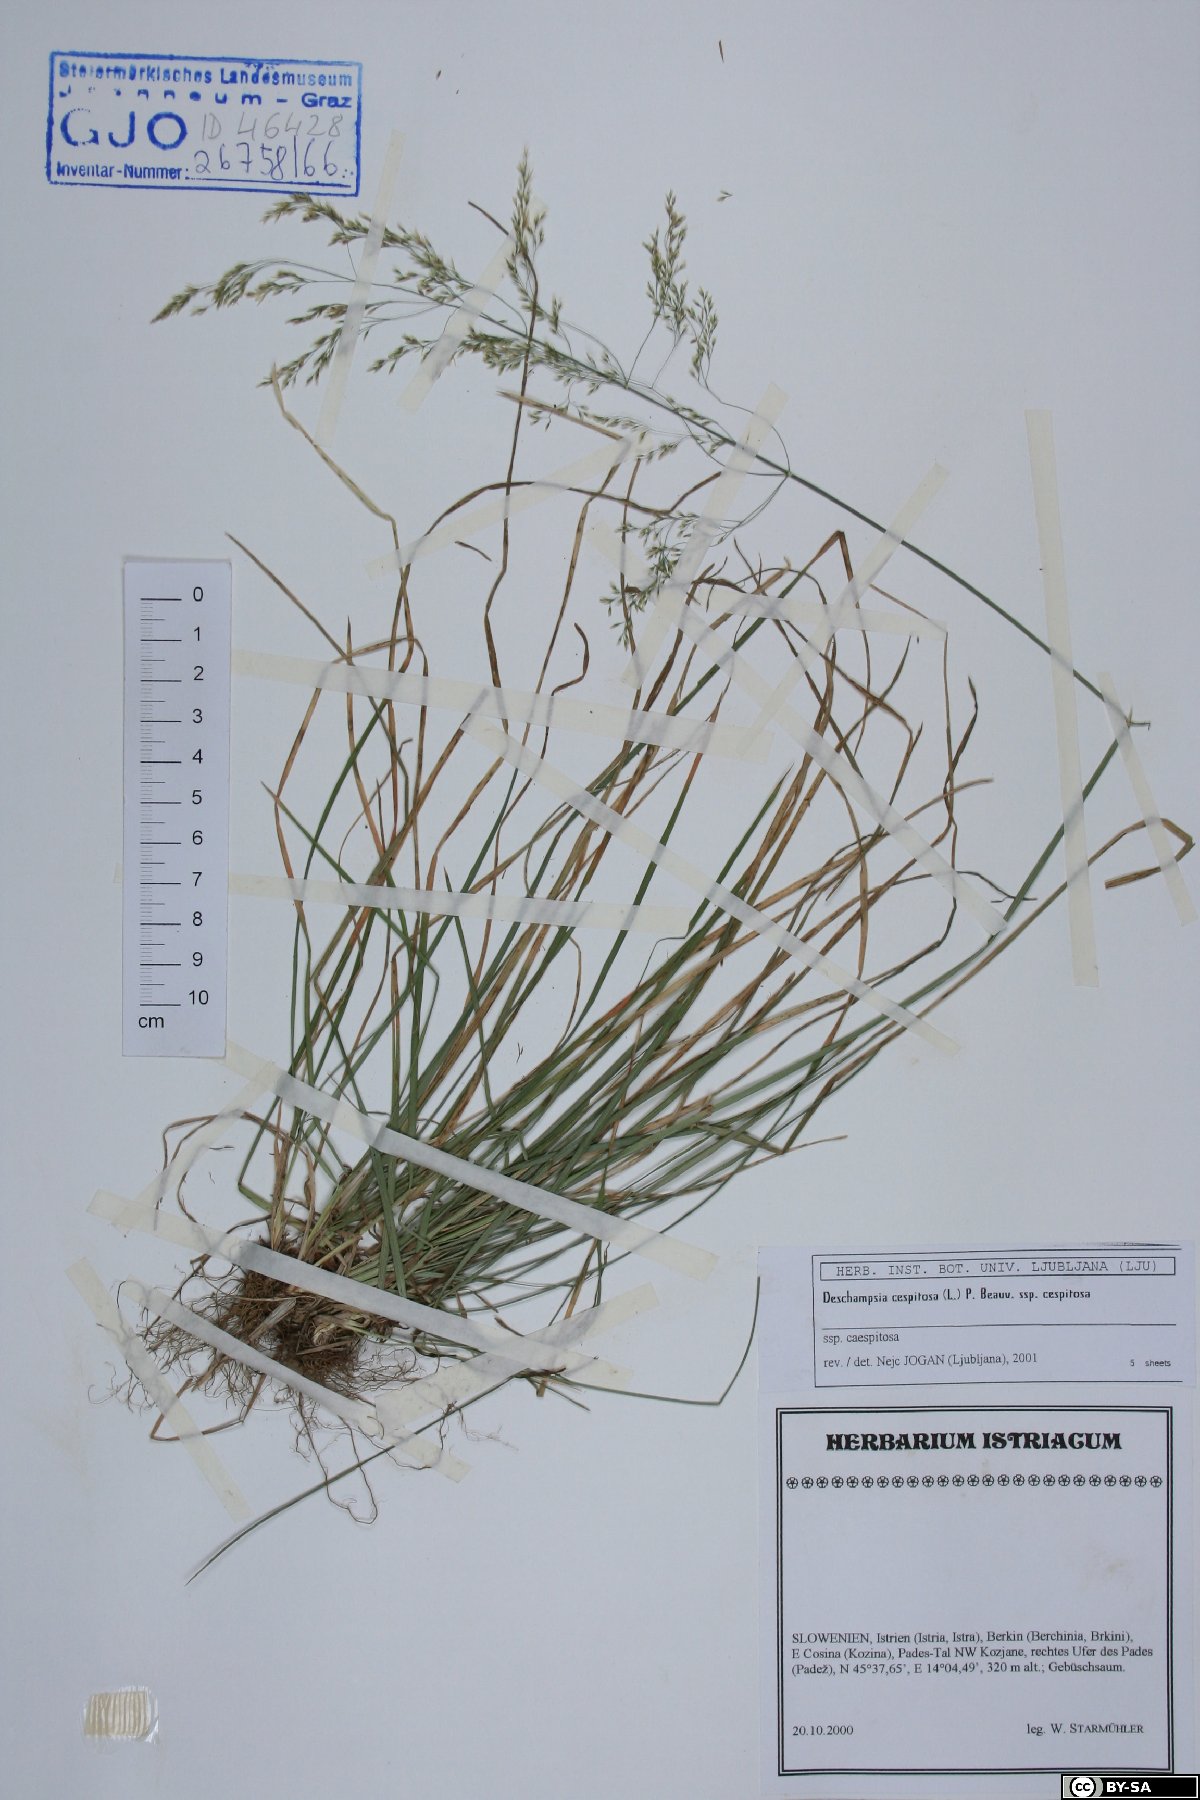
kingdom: Plantae
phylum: Tracheophyta
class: Liliopsida
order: Poales
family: Poaceae
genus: Deschampsia
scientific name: Deschampsia cespitosa
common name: Tufted hair-grass
